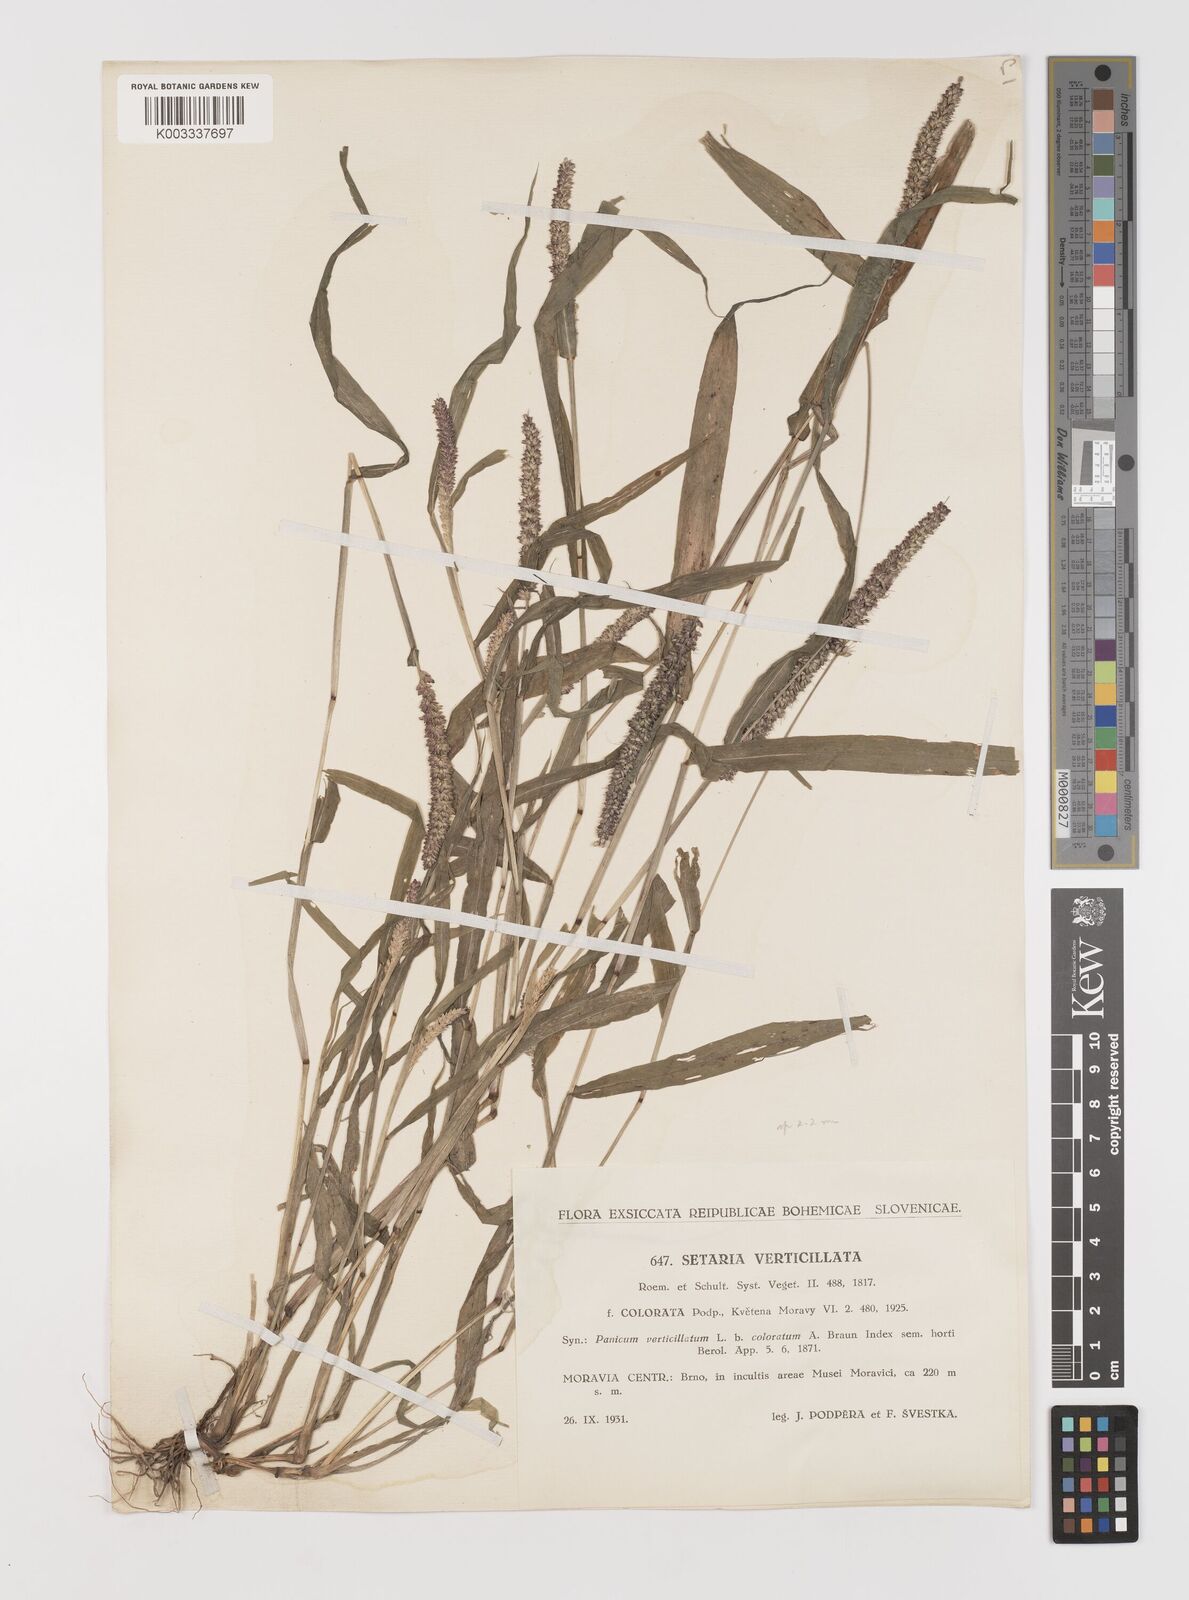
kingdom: Plantae
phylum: Tracheophyta
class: Liliopsida
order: Poales
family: Poaceae
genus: Setaria
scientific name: Setaria verticillata
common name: Hooked bristlegrass
